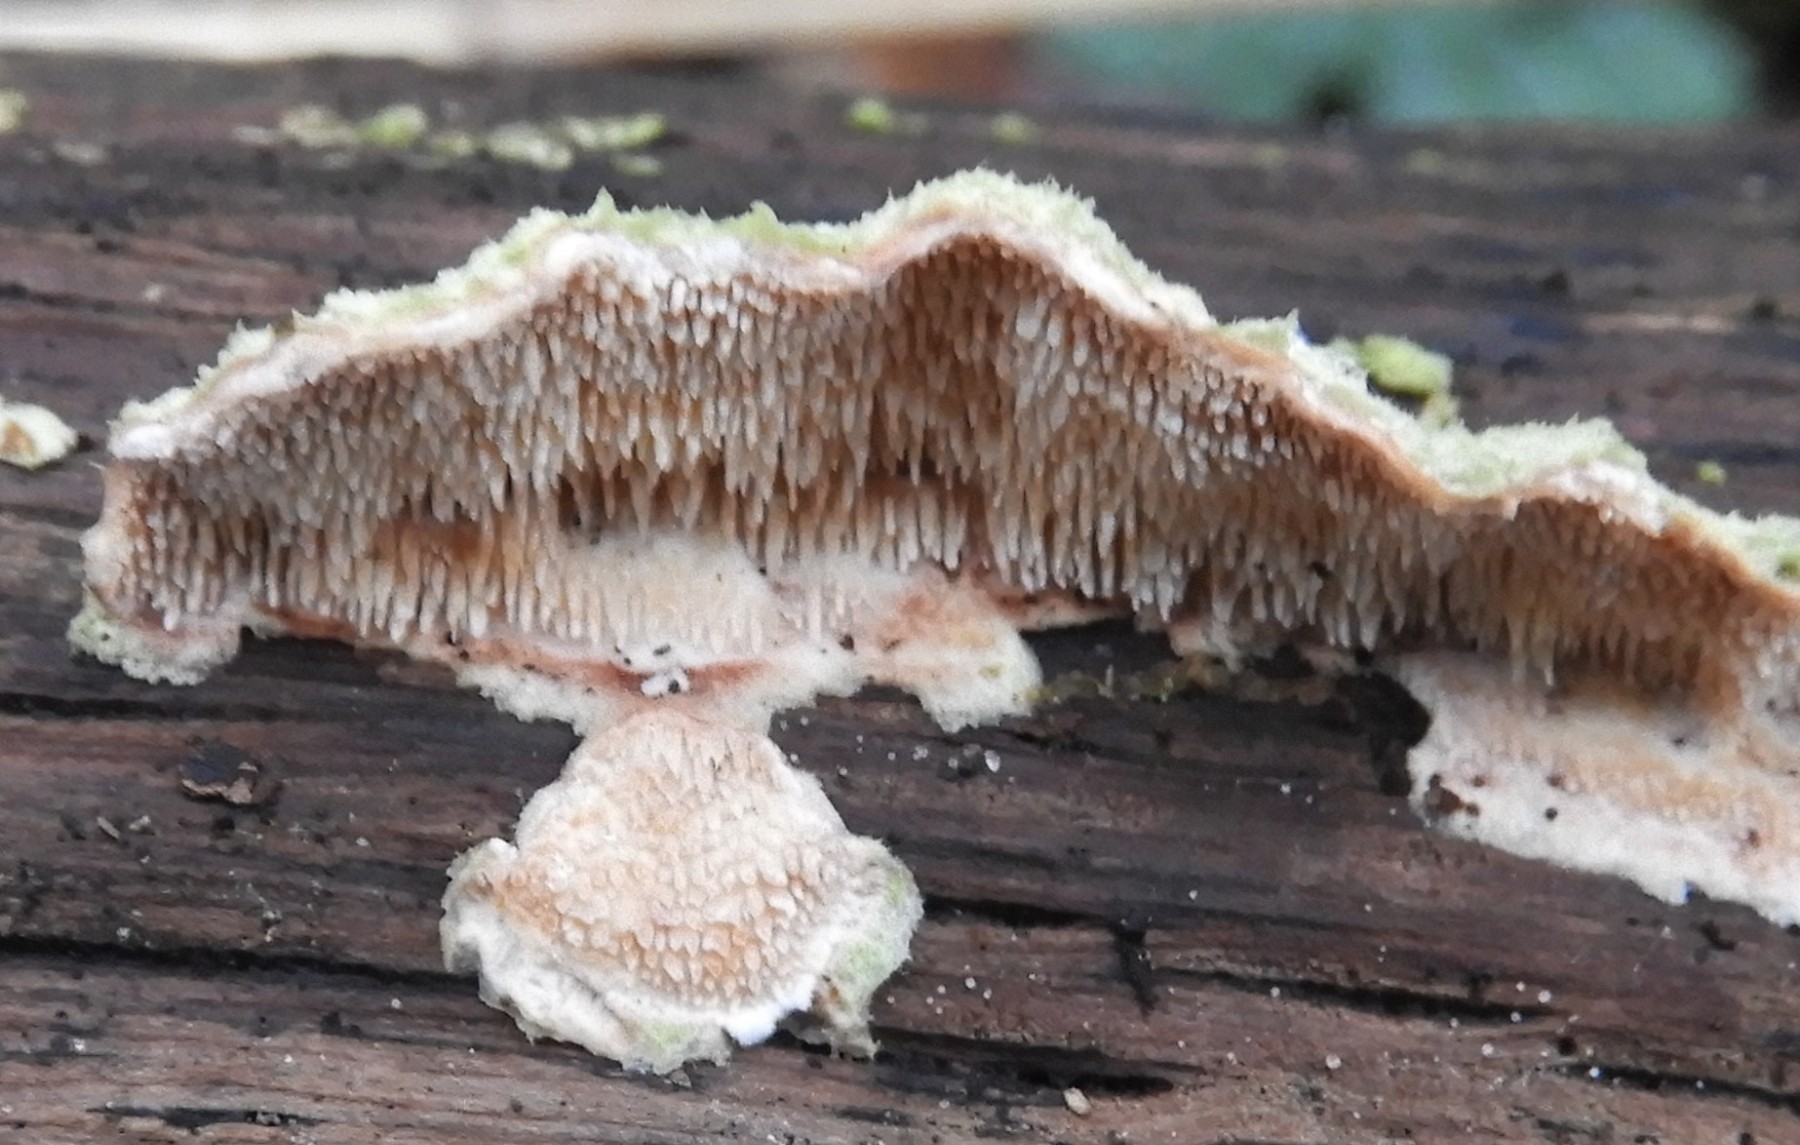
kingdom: Fungi
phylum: Basidiomycota
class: Agaricomycetes
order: Polyporales
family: Steccherinaceae
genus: Steccherinum
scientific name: Steccherinum ochraceum
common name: almindelig skønpig
